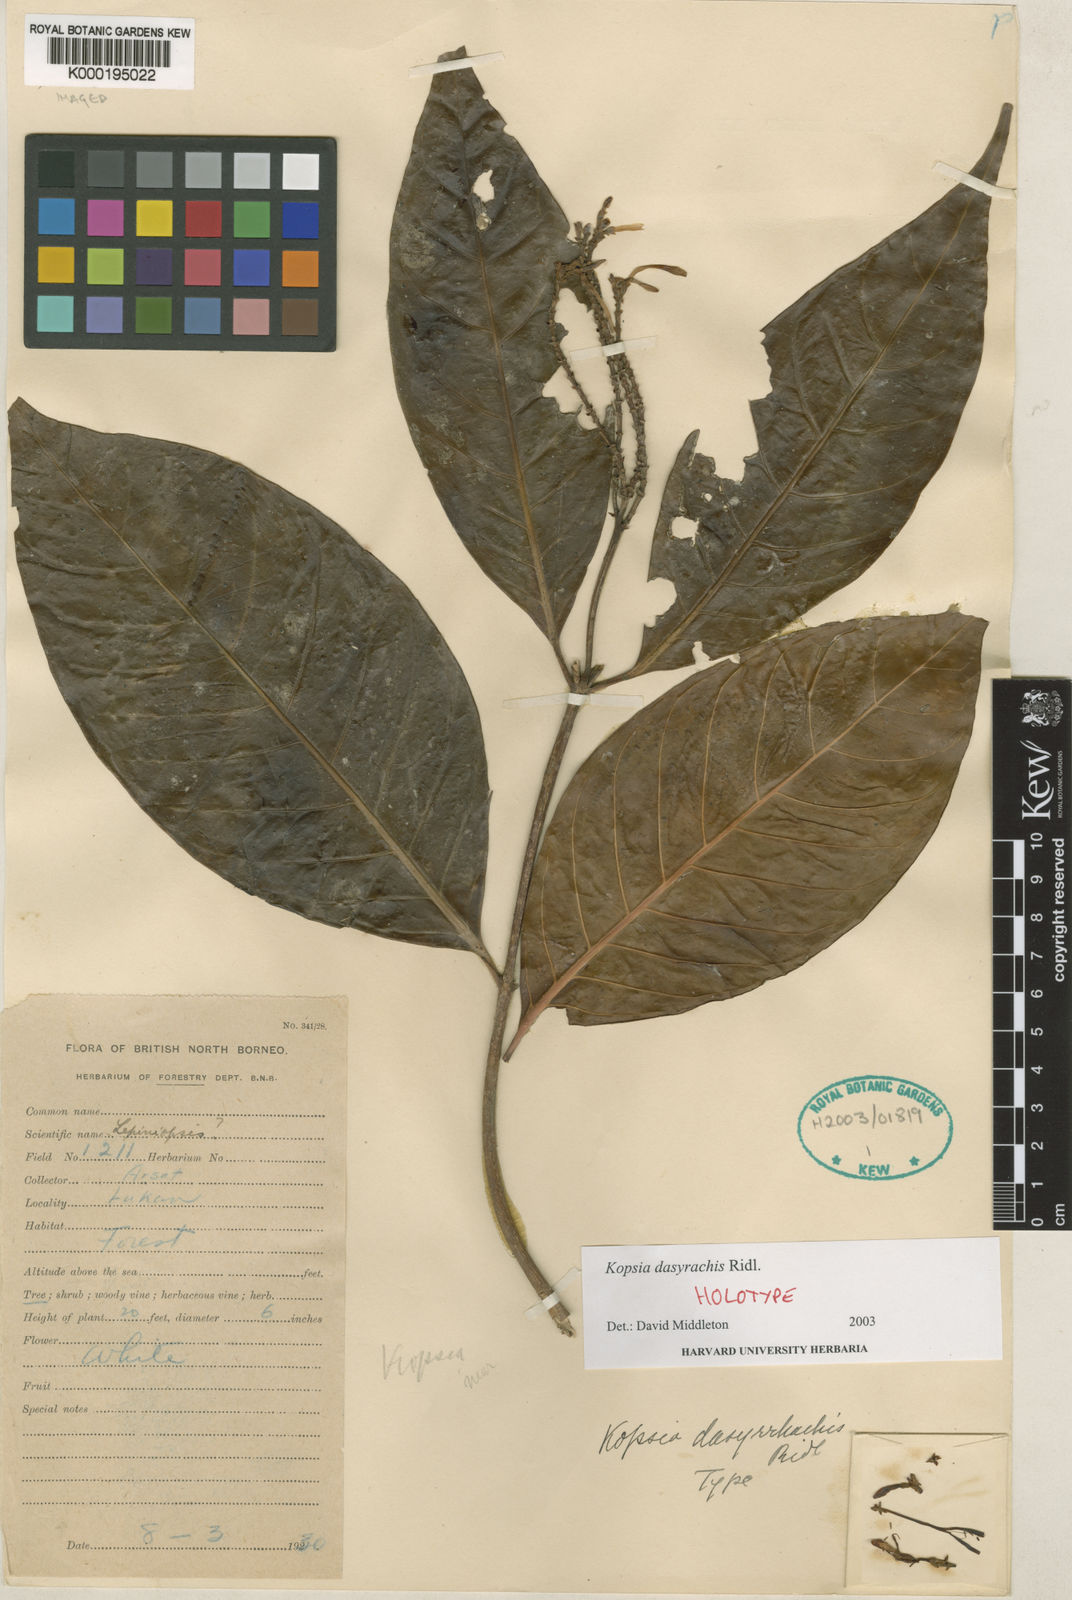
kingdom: Plantae
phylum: Tracheophyta
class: Magnoliopsida
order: Gentianales
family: Apocynaceae
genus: Kopsia
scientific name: Kopsia dasyrachis
